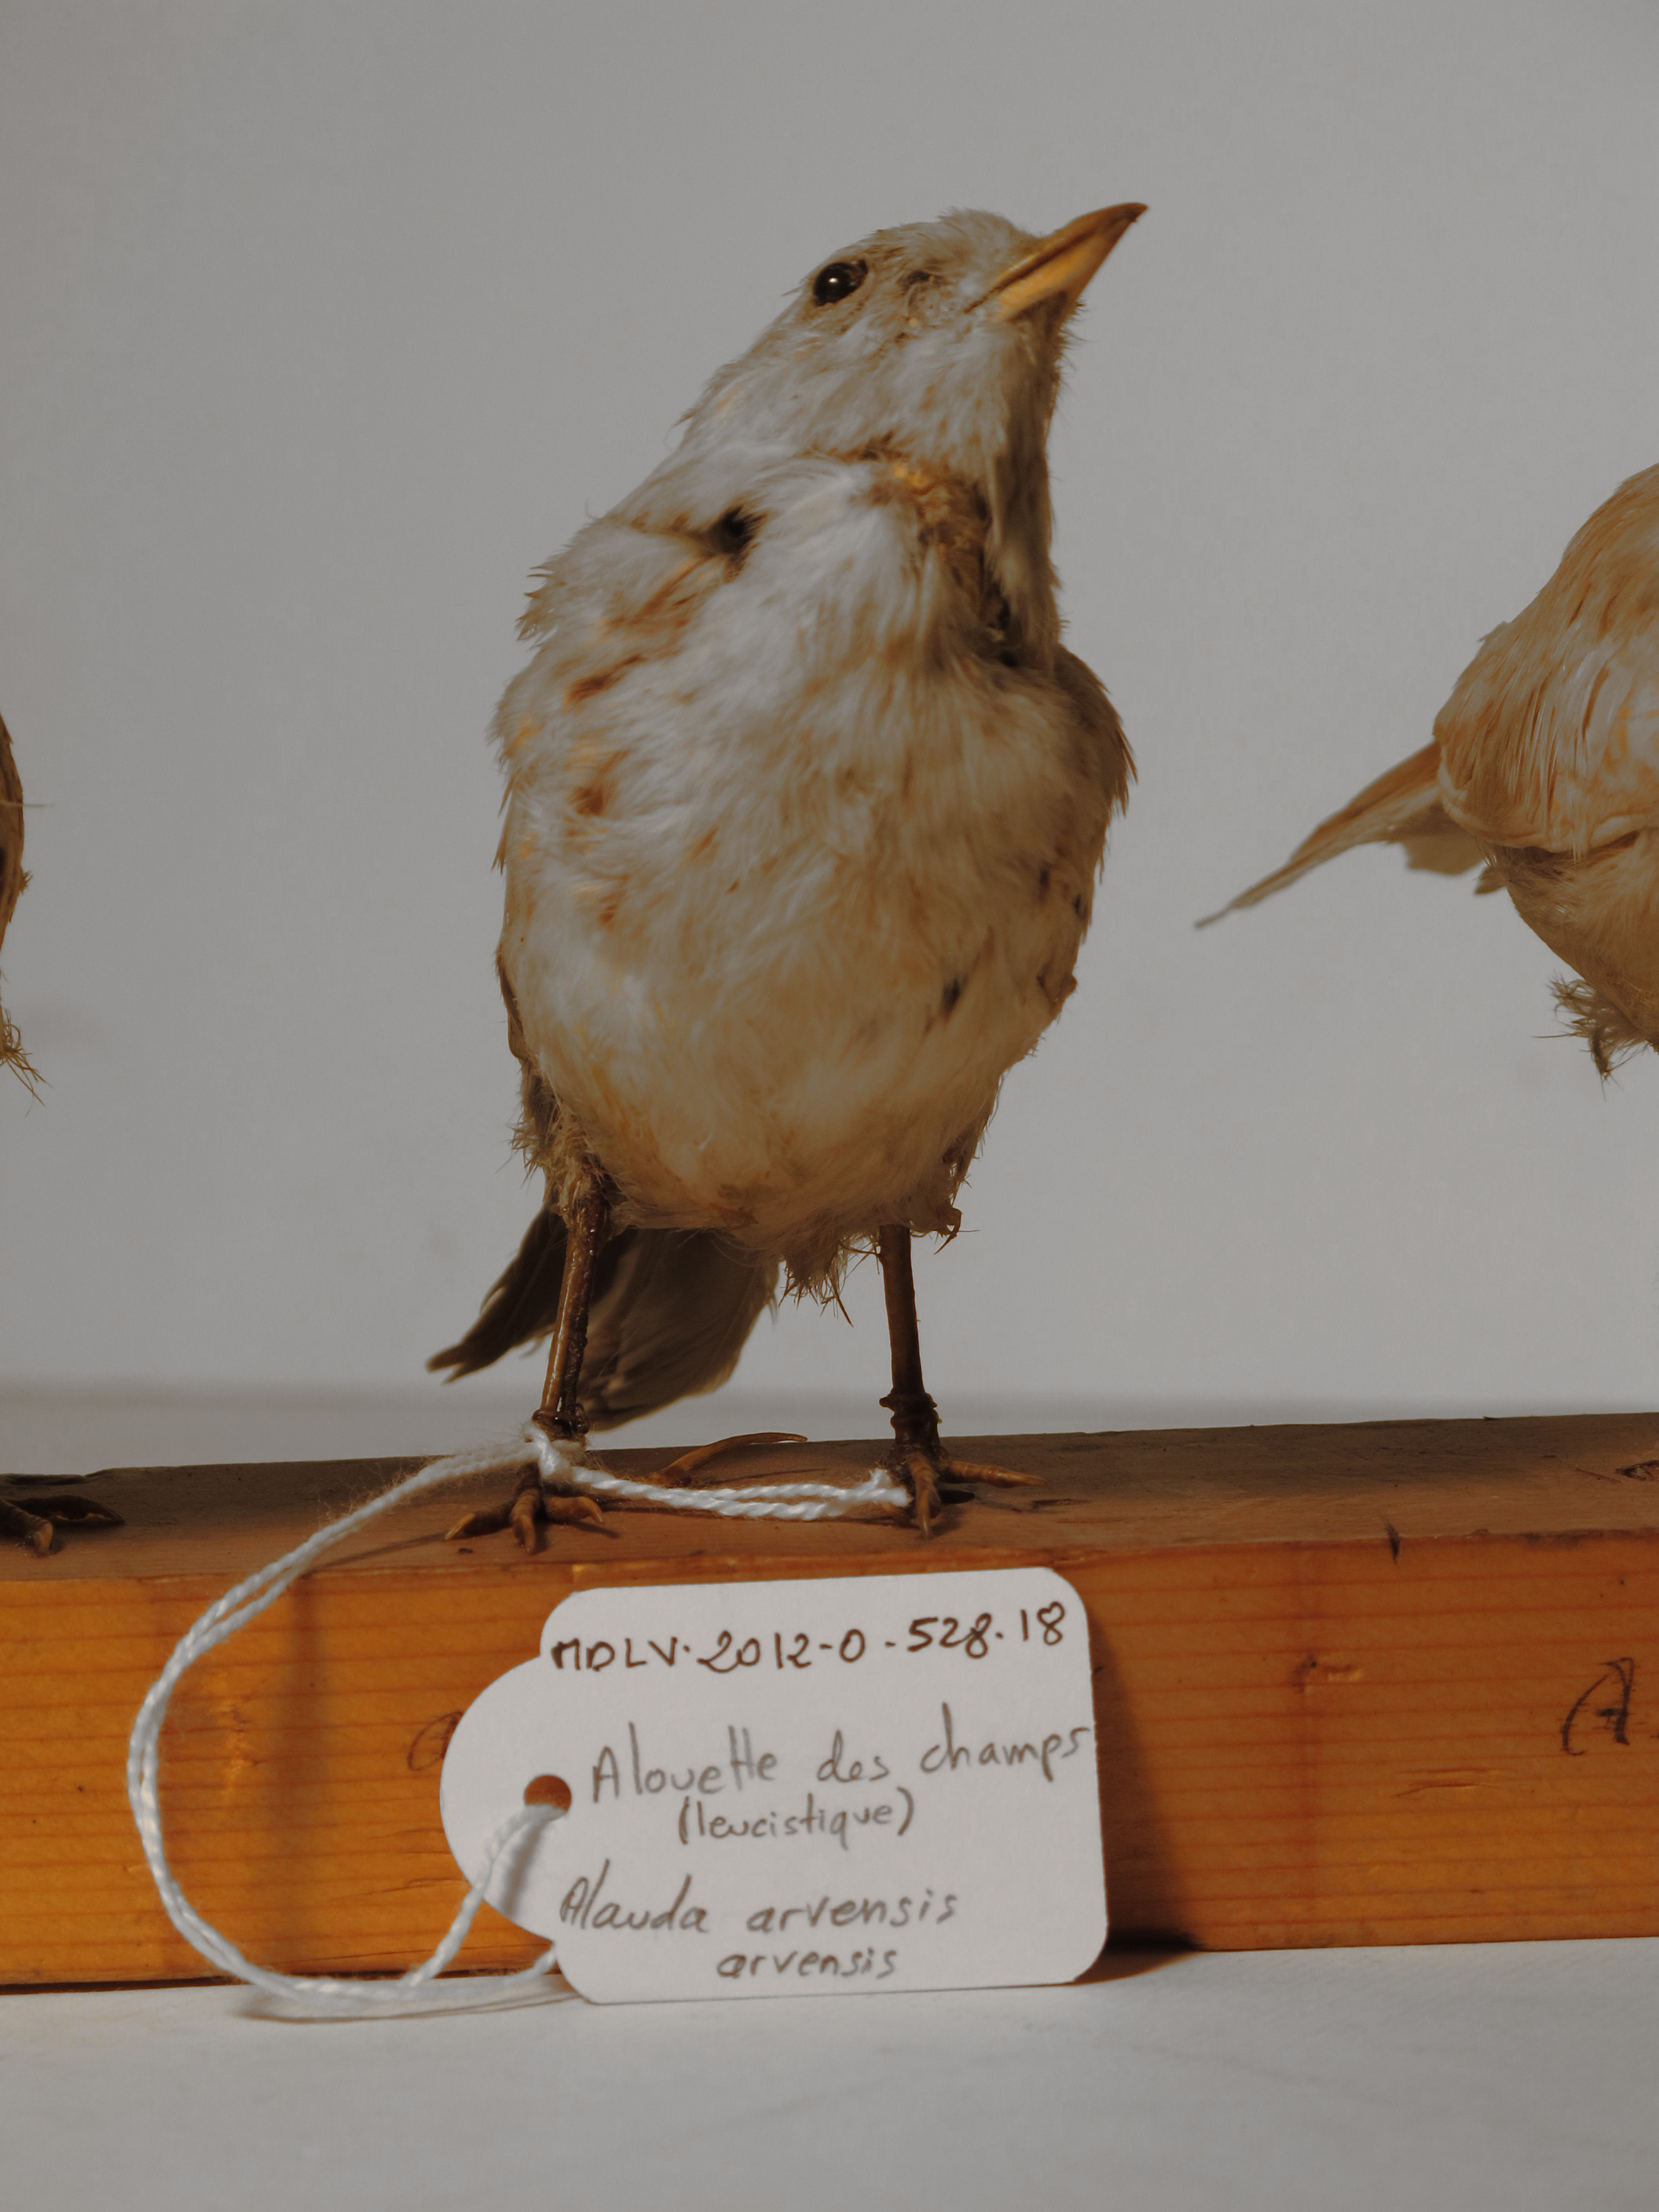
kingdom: Animalia
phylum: Chordata
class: Aves
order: Passeriformes
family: Alaudidae
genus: Alauda
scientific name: Alauda arvensis
